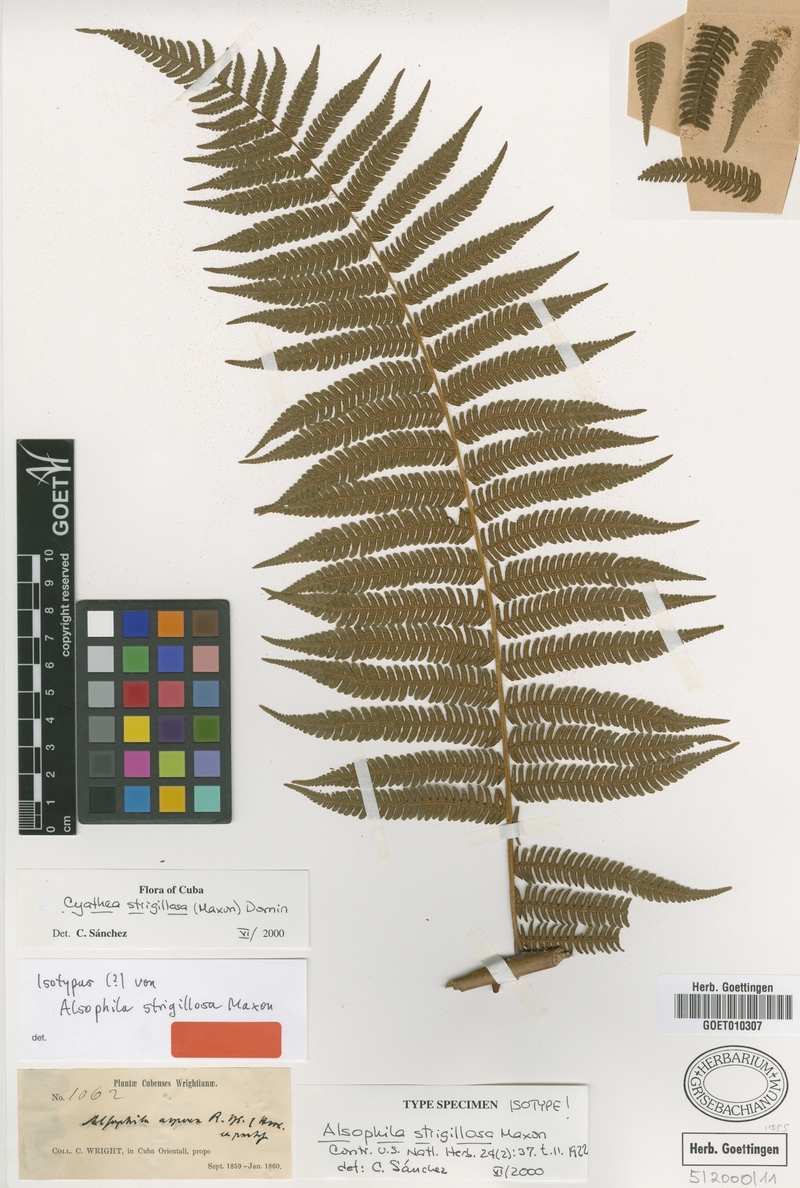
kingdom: Plantae
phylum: Tracheophyta
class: Polypodiopsida
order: Cyatheales
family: Cyatheaceae
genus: Cyathea
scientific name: Cyathea strigillosa
